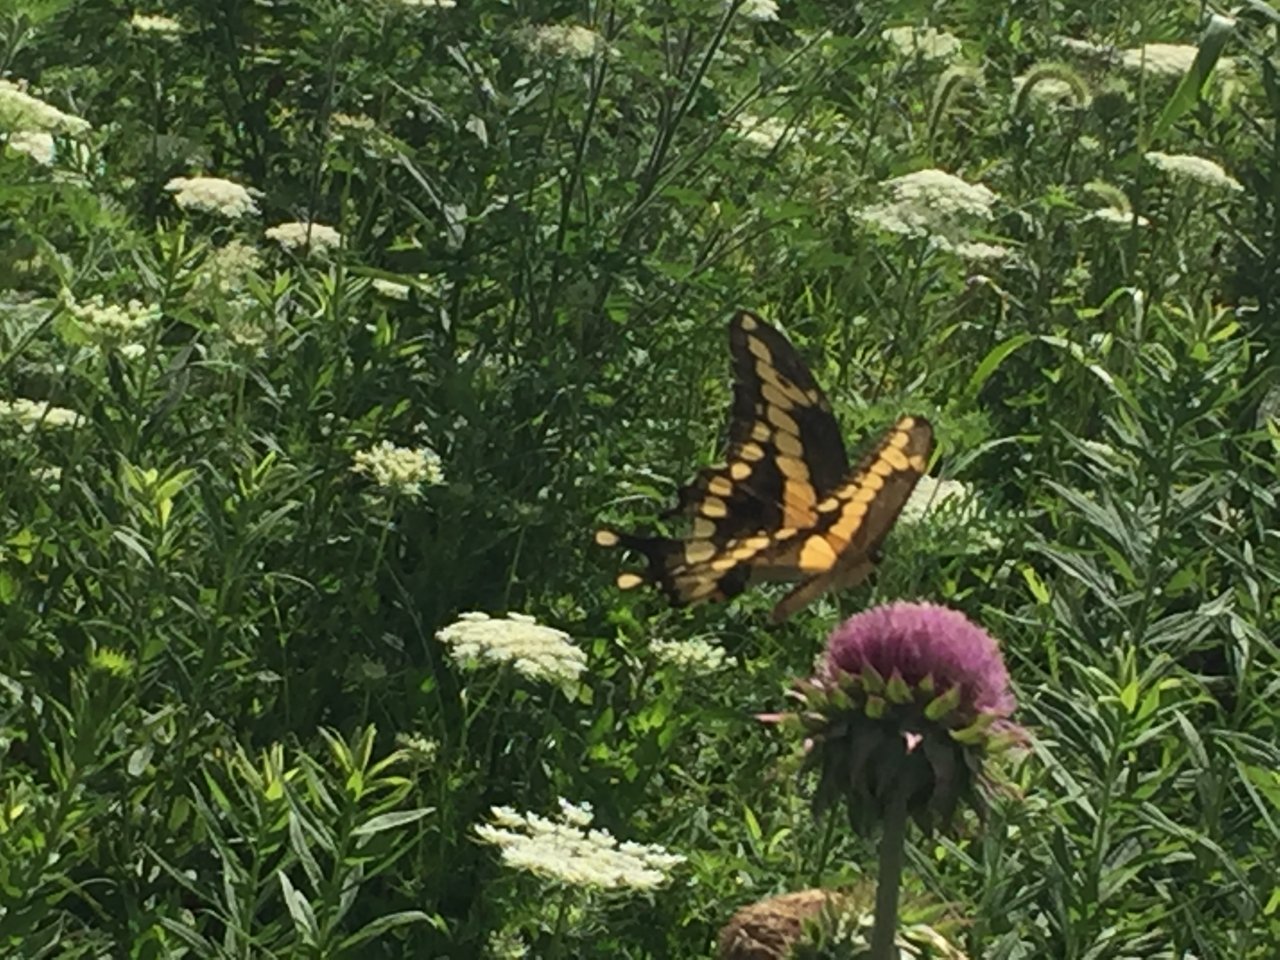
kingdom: Animalia
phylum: Arthropoda
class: Insecta
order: Lepidoptera
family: Papilionidae
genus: Papilio
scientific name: Papilio cresphontes
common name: Eastern Giant Swallowtail
